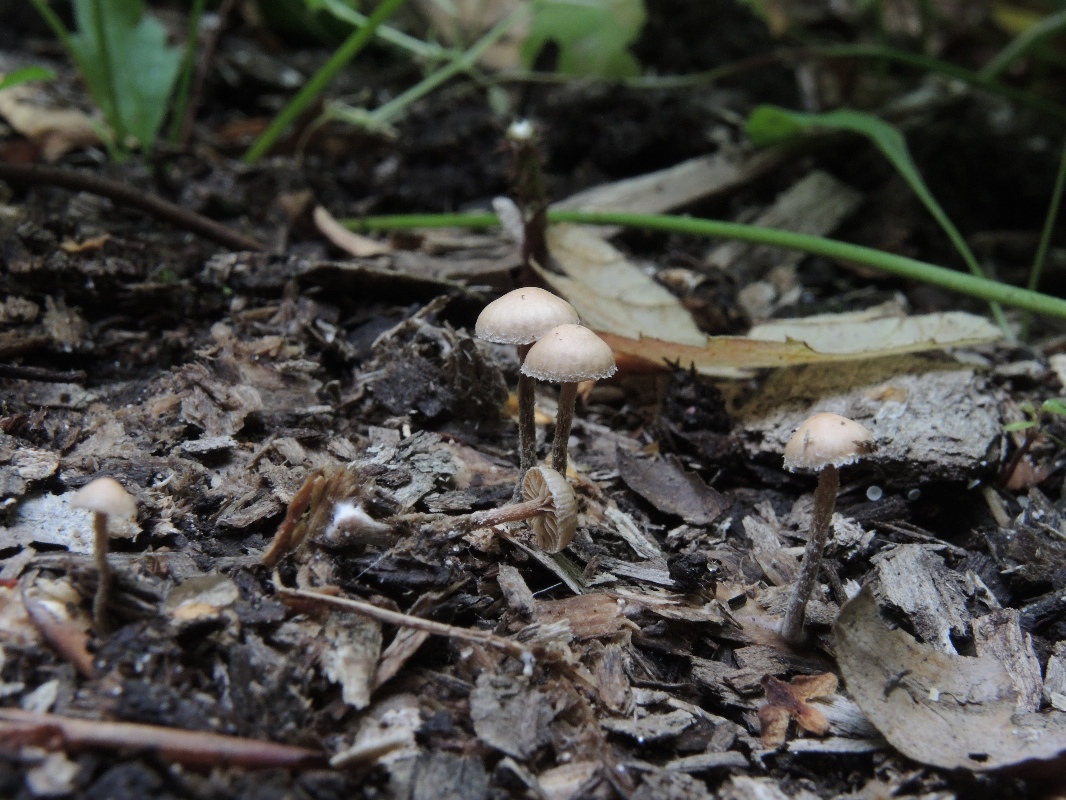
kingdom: Fungi
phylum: Basidiomycota
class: Agaricomycetes
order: Agaricales
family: Strophariaceae
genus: Deconica
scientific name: Deconica crobula
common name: træflis-stråhat
